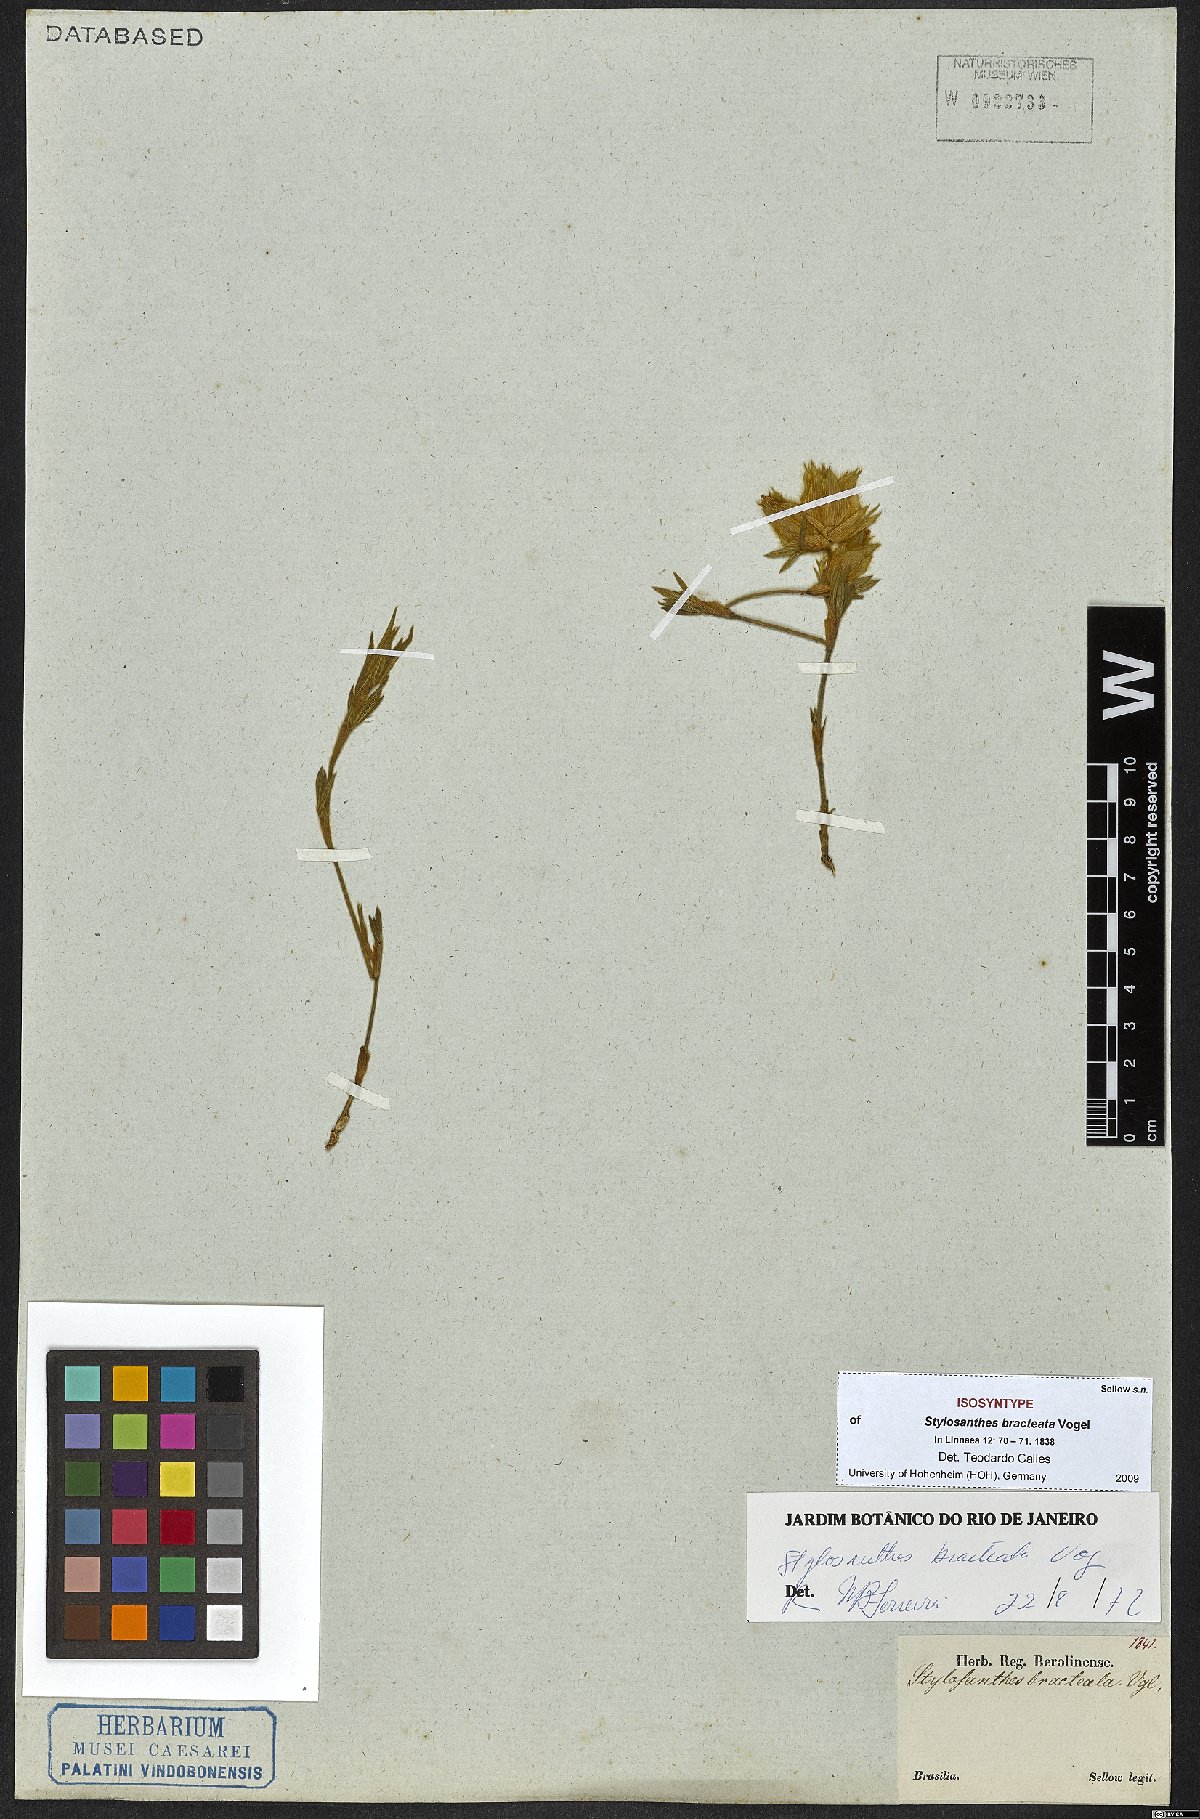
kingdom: Plantae
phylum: Tracheophyta
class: Magnoliopsida
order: Fabales
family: Fabaceae
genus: Stylosanthes
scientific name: Stylosanthes bracteata
